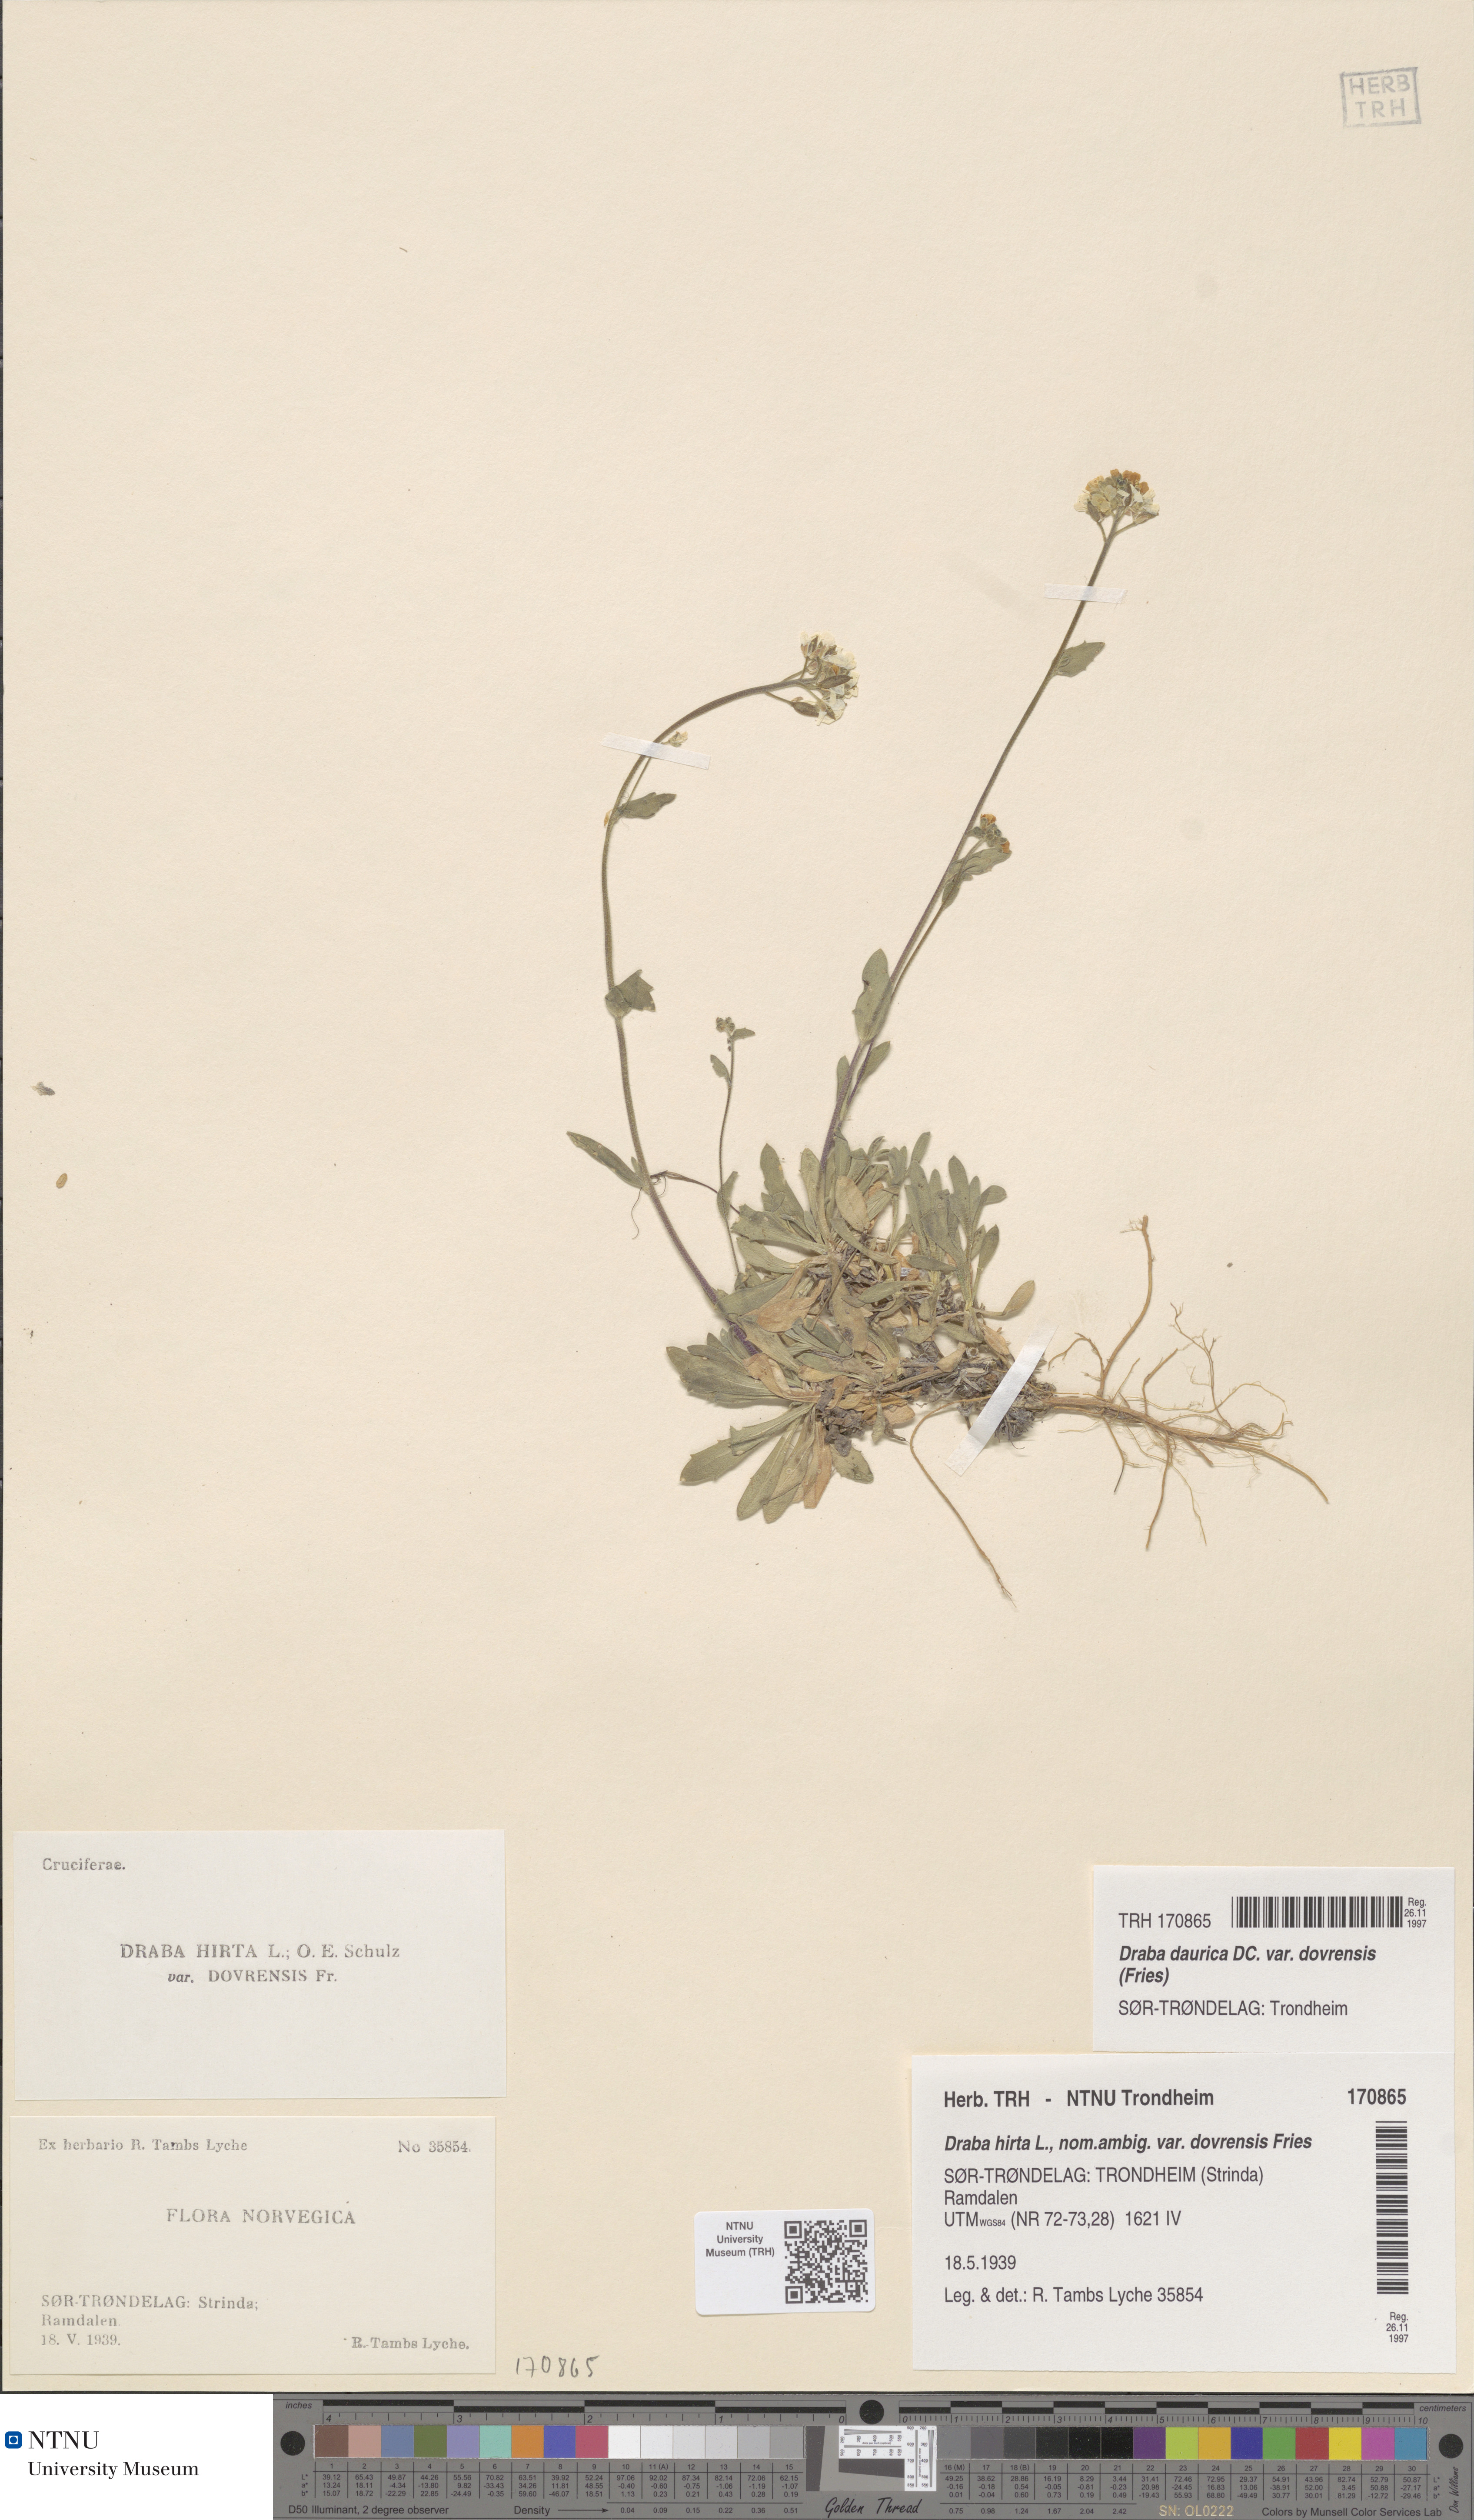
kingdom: Plantae
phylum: Tracheophyta
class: Magnoliopsida
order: Brassicales
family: Brassicaceae
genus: Draba
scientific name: Draba glabella
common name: Glaucous draba
